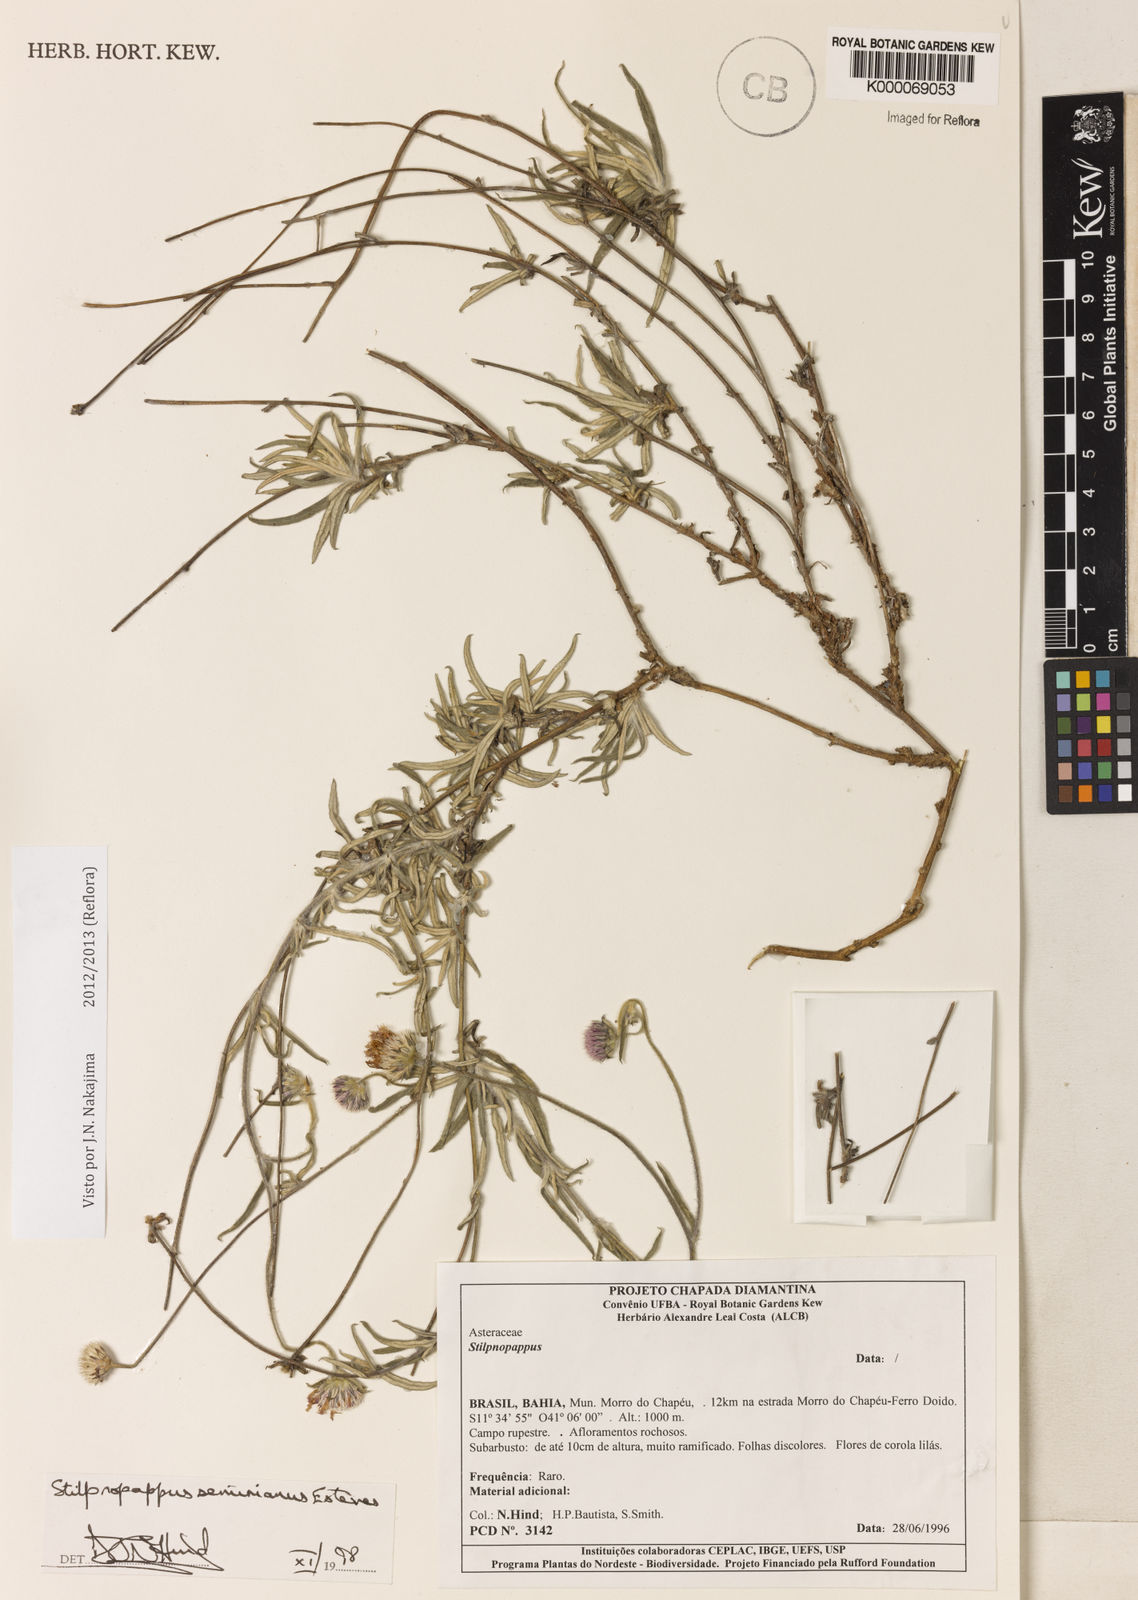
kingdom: Plantae
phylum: Tracheophyta
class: Magnoliopsida
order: Asterales
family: Asteraceae
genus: Stilpnopappus
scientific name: Stilpnopappus semirianus
